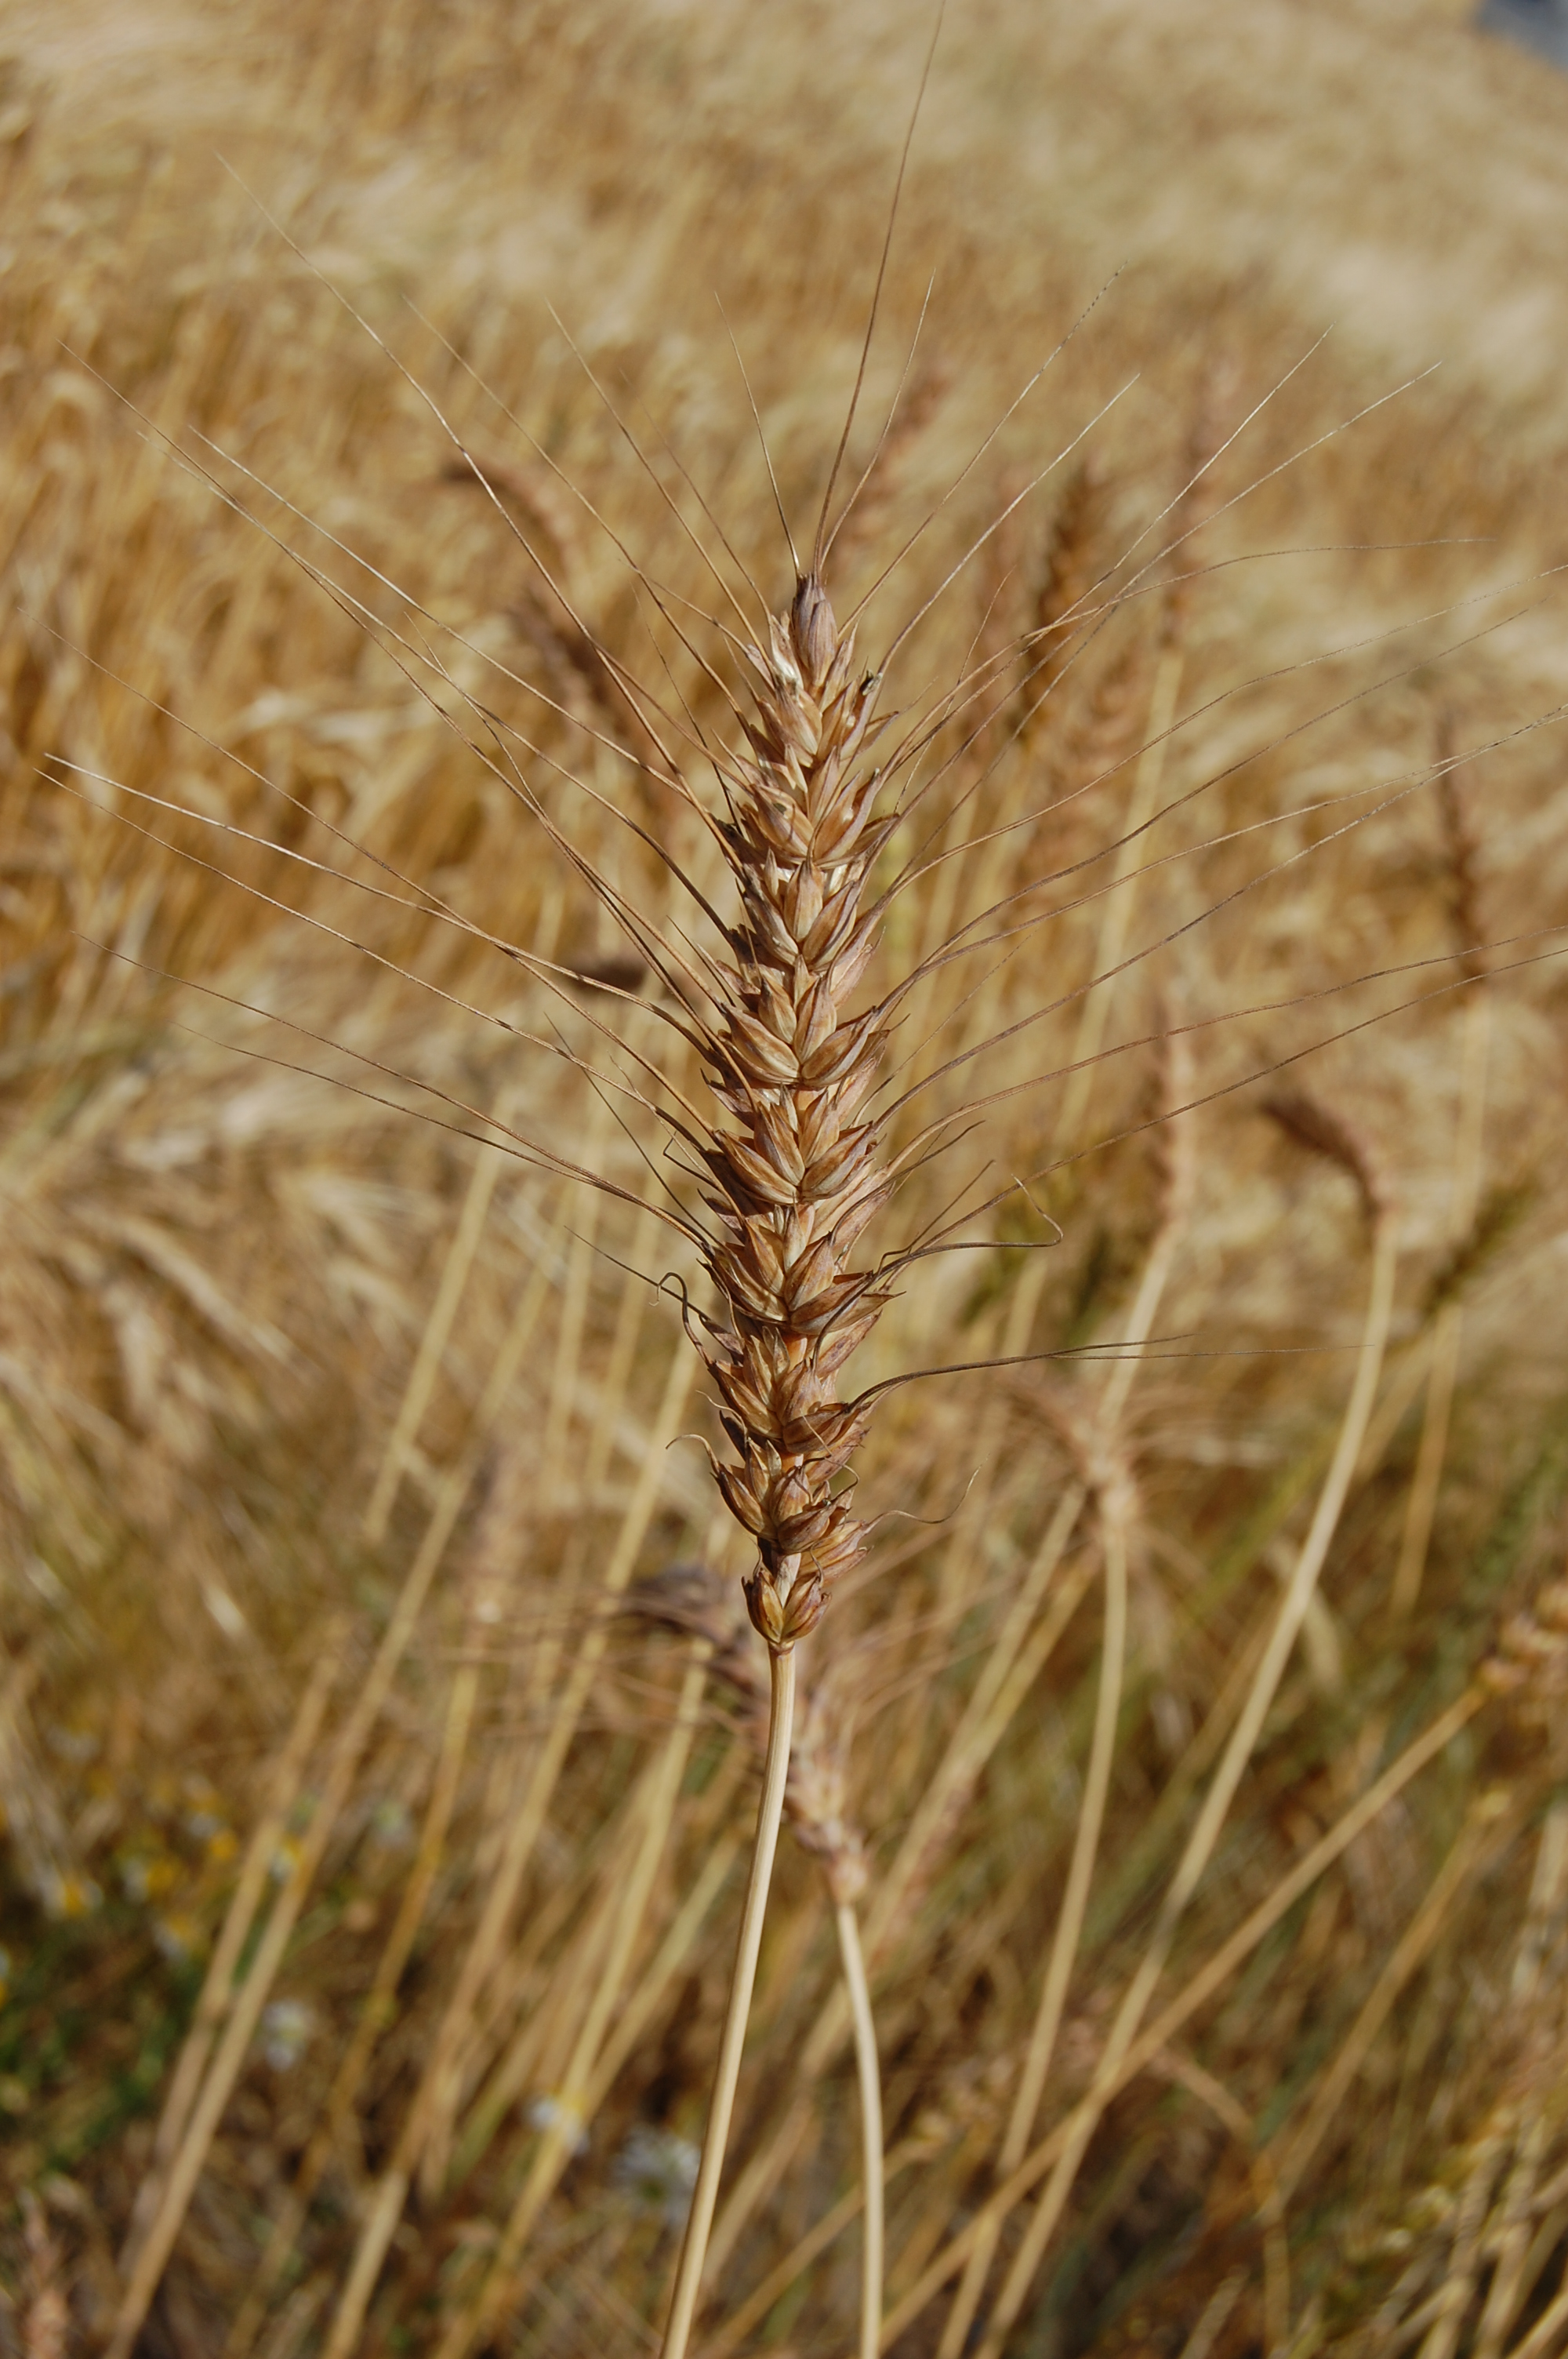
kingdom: Plantae
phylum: Tracheophyta
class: Liliopsida
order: Poales
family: Poaceae
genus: Triticum
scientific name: Triticum aestivum
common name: Common wheat
